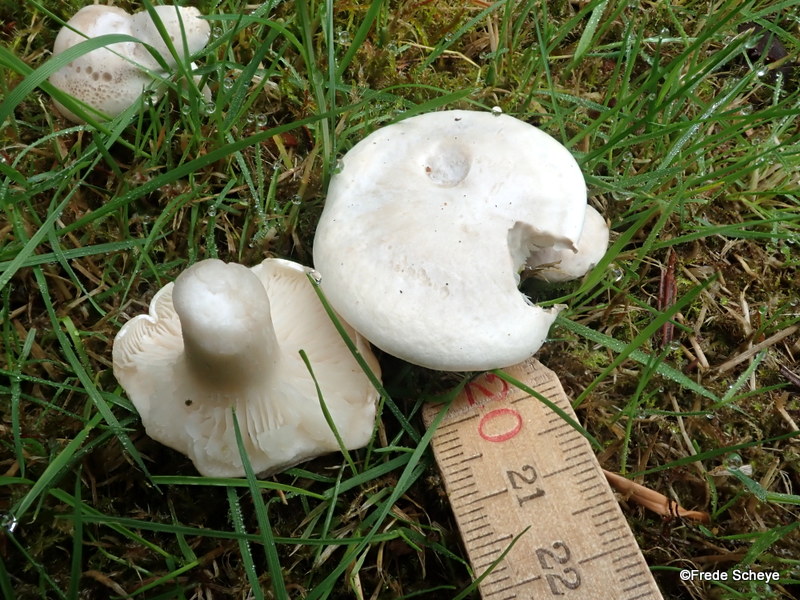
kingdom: Fungi
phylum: Basidiomycota
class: Agaricomycetes
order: Agaricales
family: Entolomataceae
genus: Clitopilus
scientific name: Clitopilus prunulus
